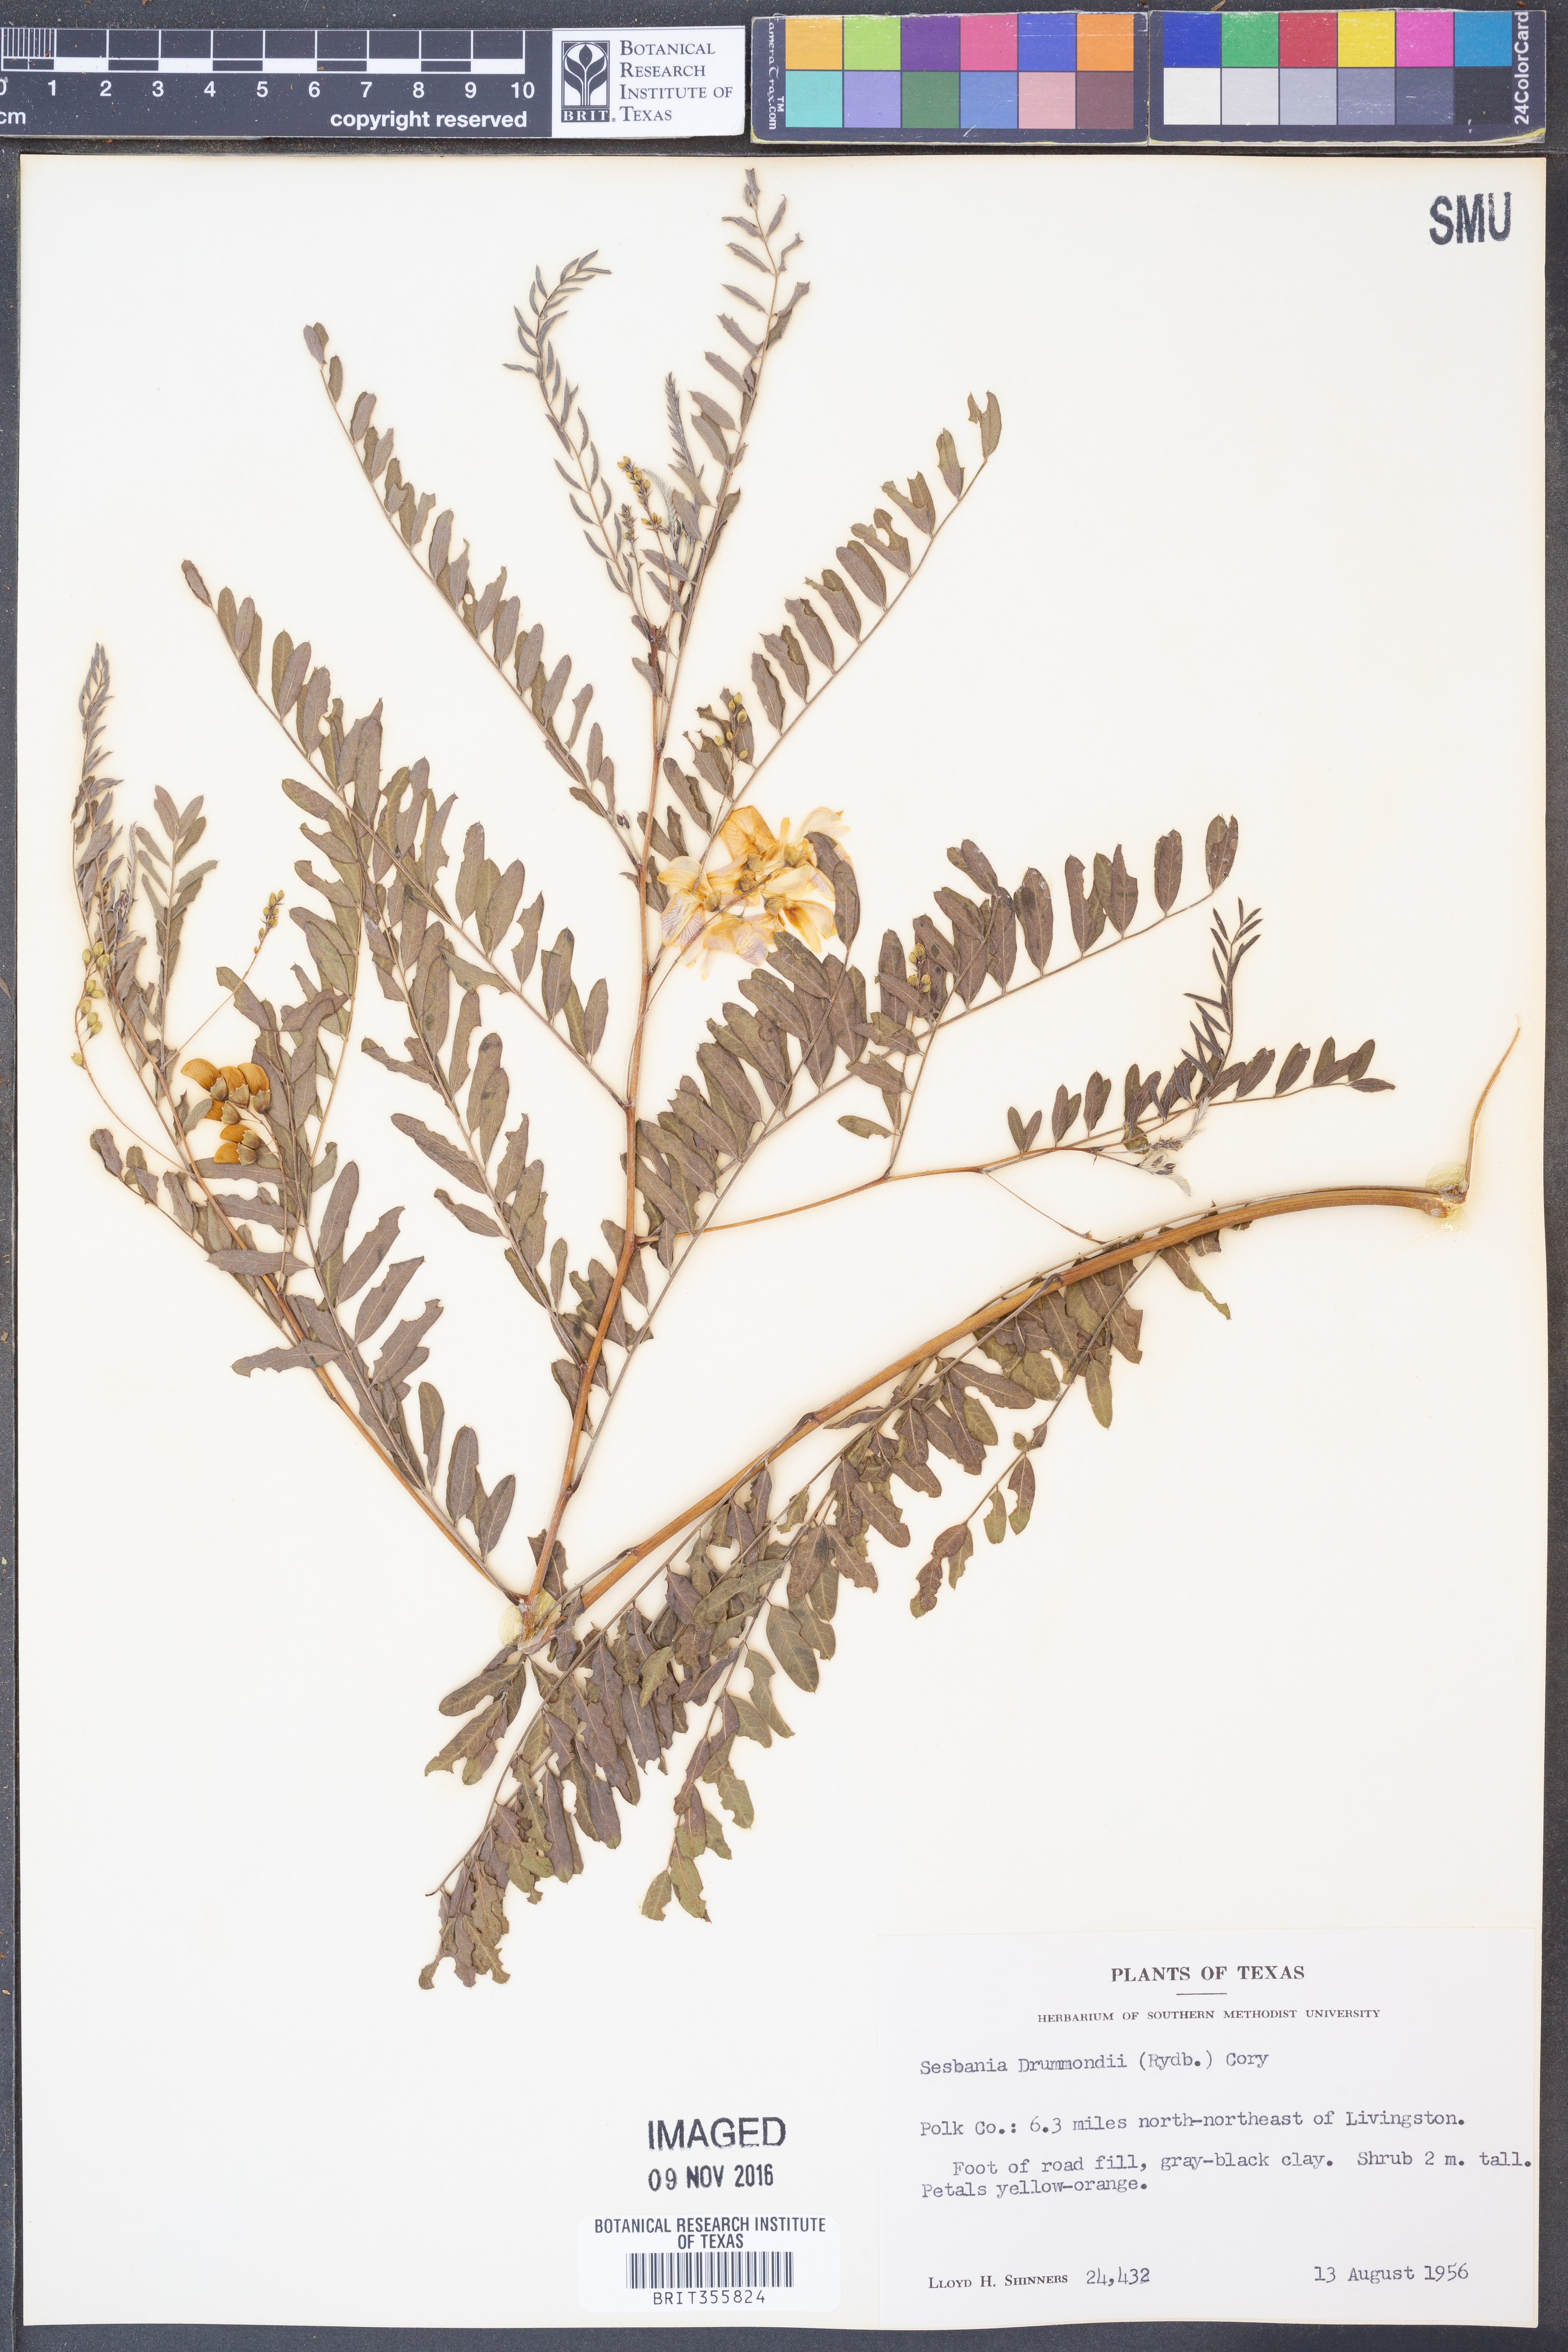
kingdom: Plantae
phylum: Tracheophyta
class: Magnoliopsida
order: Fabales
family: Fabaceae
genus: Sesbania
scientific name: Sesbania drummondii
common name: Poison-bean
